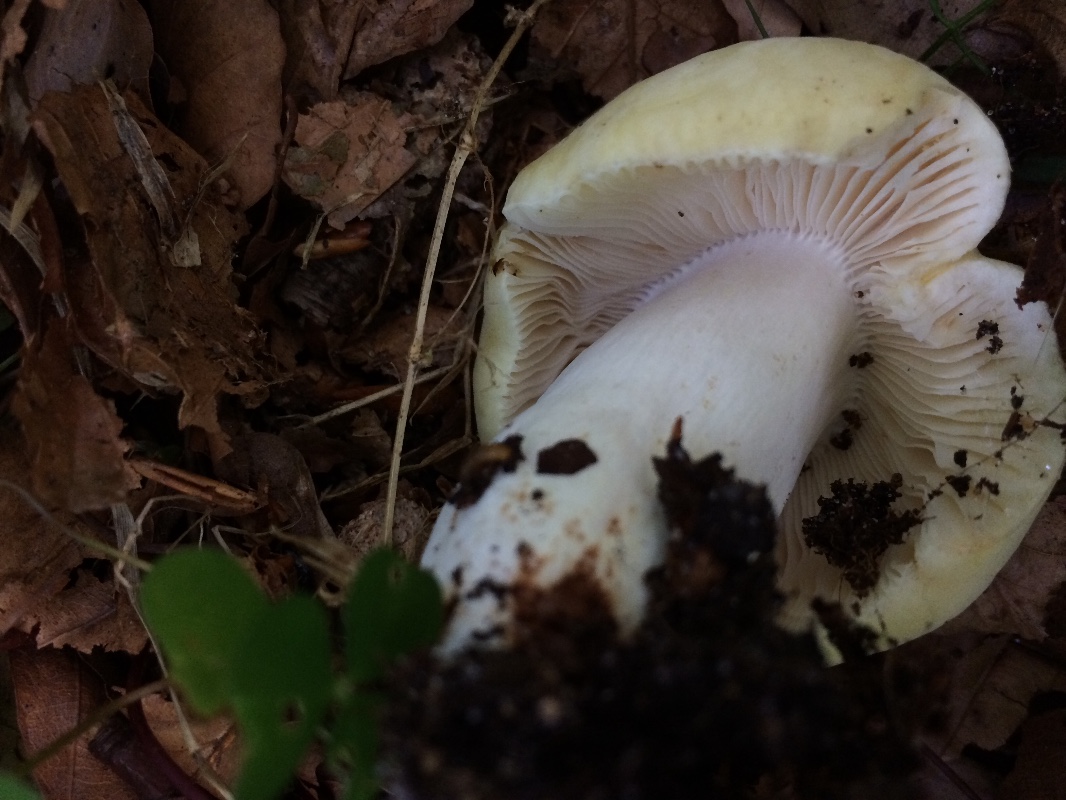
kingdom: Fungi
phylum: Basidiomycota
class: Agaricomycetes
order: Russulales
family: Russulaceae
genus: Russula
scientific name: Russula violeipes
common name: ferskengul skørhat
